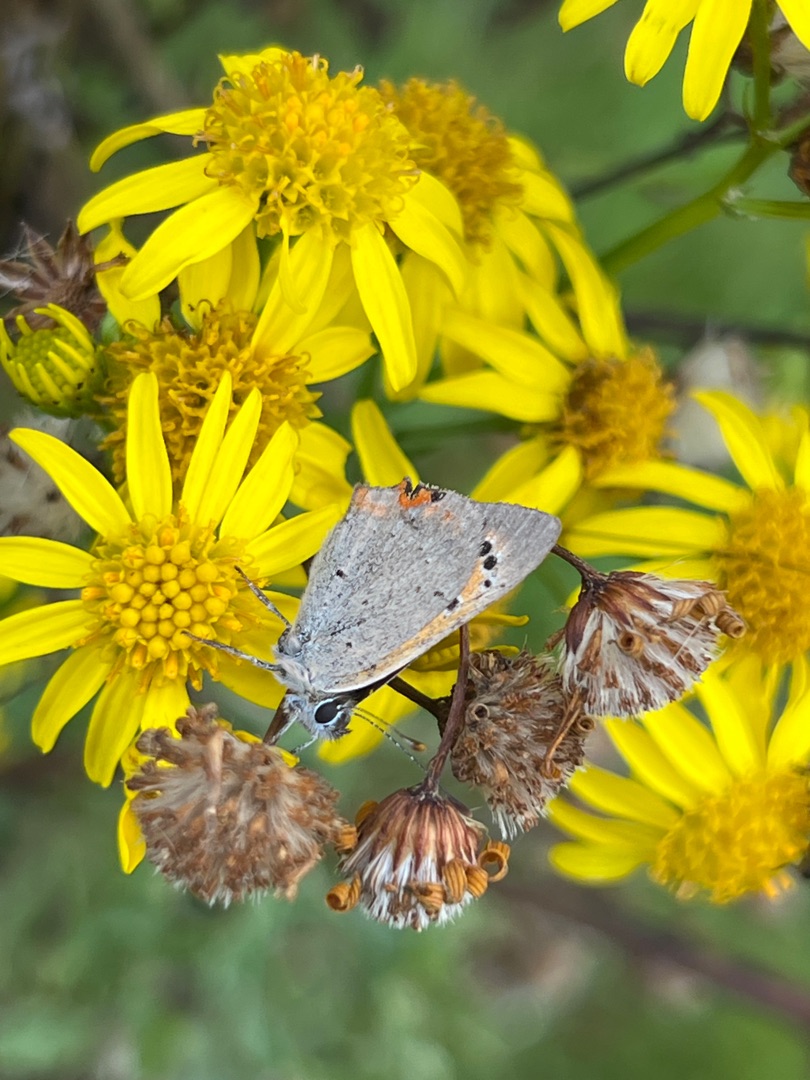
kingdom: Animalia
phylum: Arthropoda
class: Insecta
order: Lepidoptera
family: Lycaenidae
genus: Lycaena
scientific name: Lycaena phlaeas
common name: Lille ildfugl
